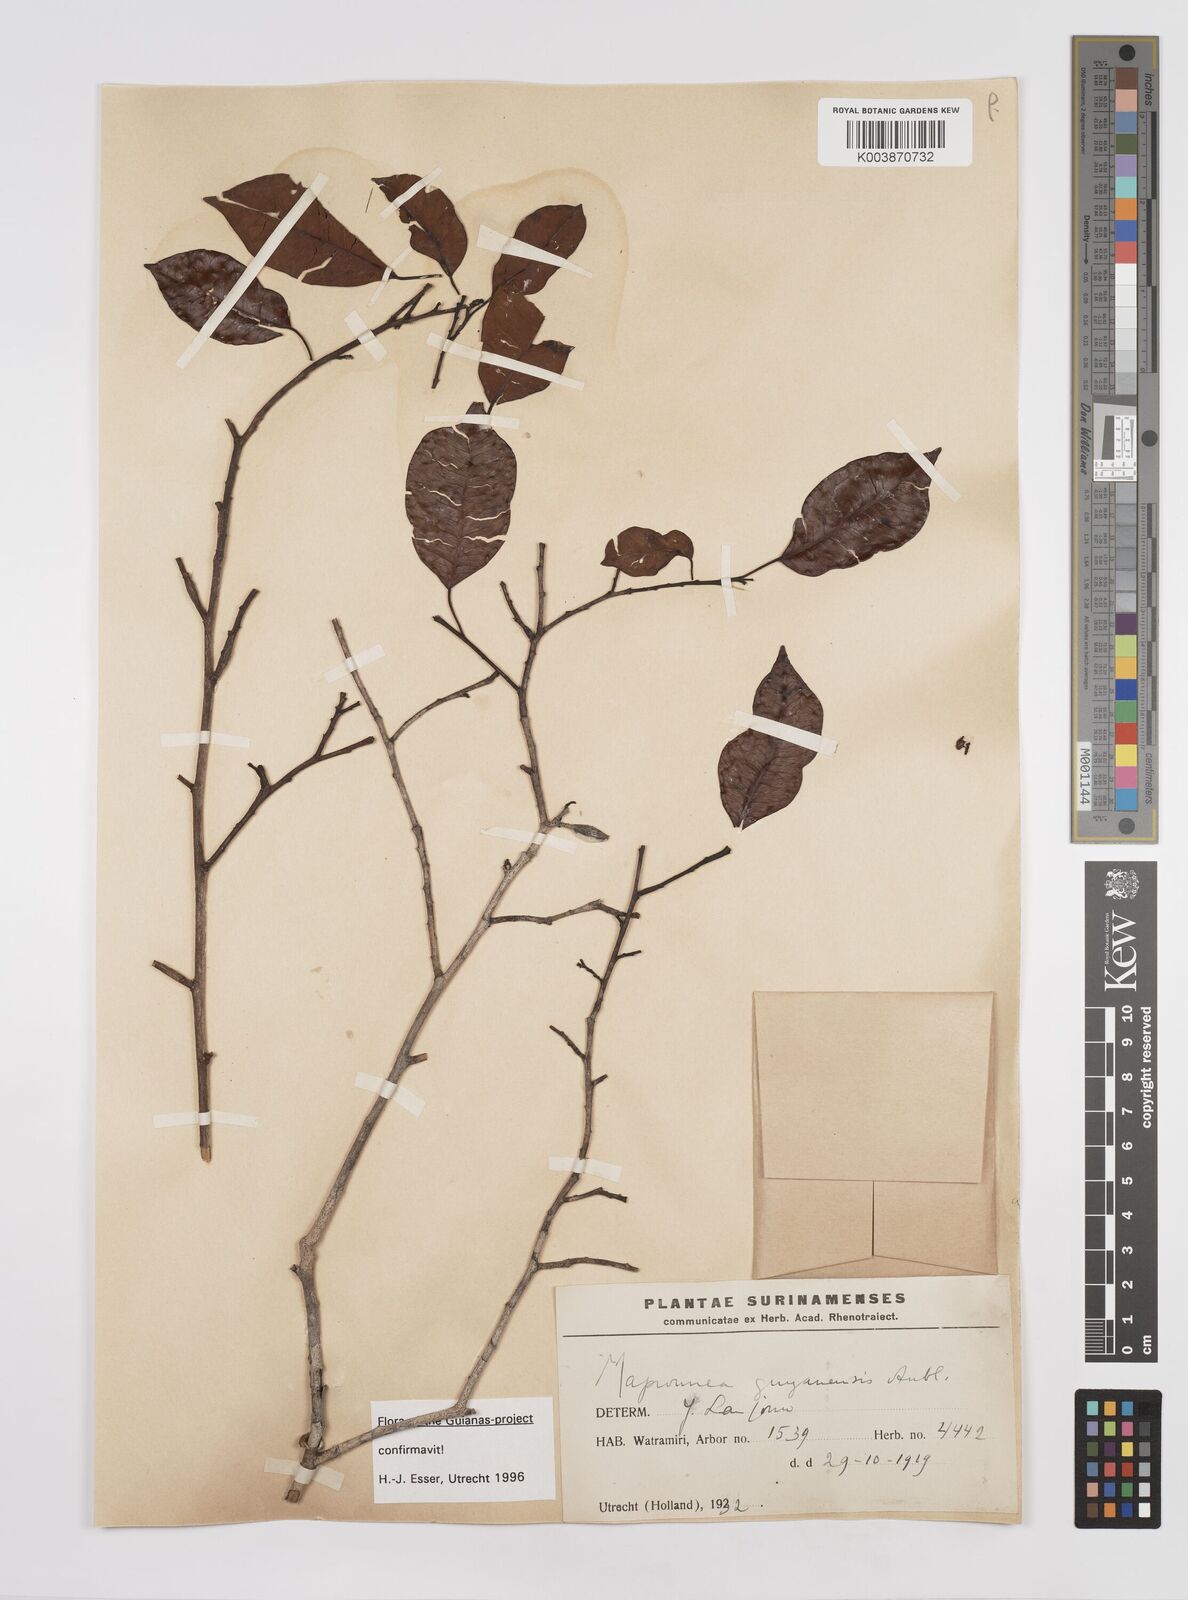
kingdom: Plantae
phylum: Tracheophyta
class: Magnoliopsida
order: Malpighiales
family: Euphorbiaceae
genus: Maprounea
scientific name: Maprounea guianensis
